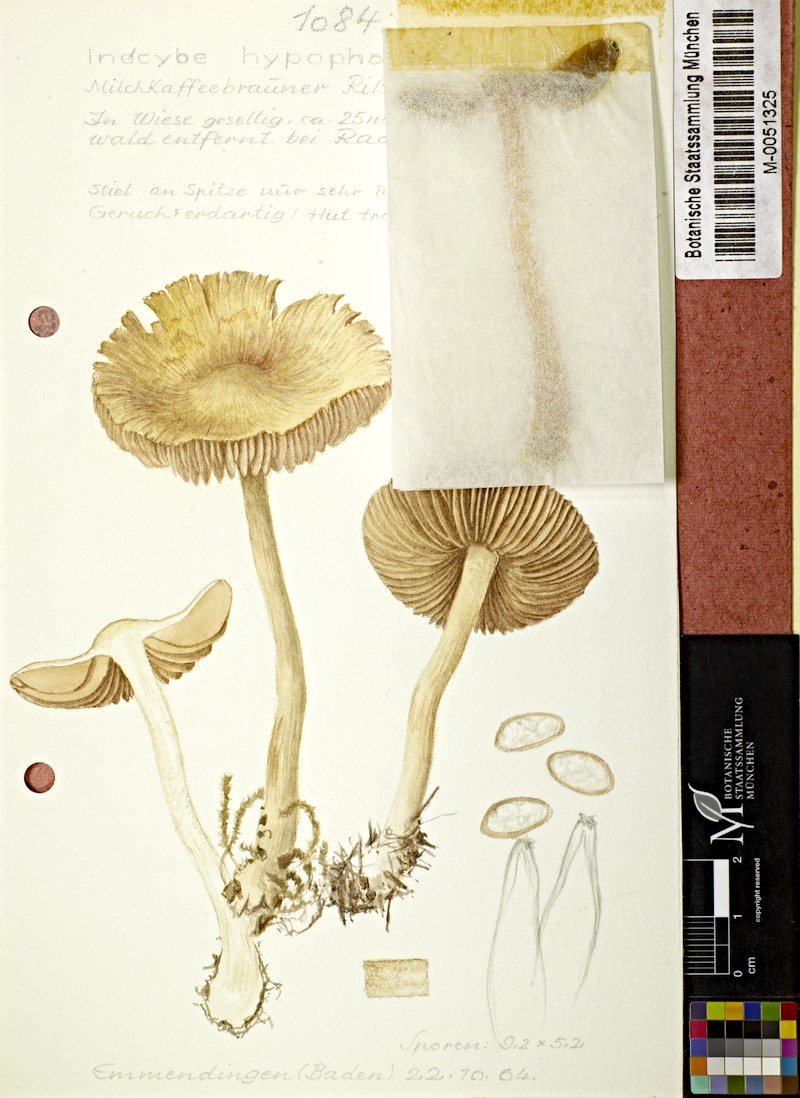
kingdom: Fungi
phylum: Basidiomycota
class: Agaricomycetes
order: Agaricales
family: Inocybaceae
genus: Inocybe
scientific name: Inocybe fuscidula
